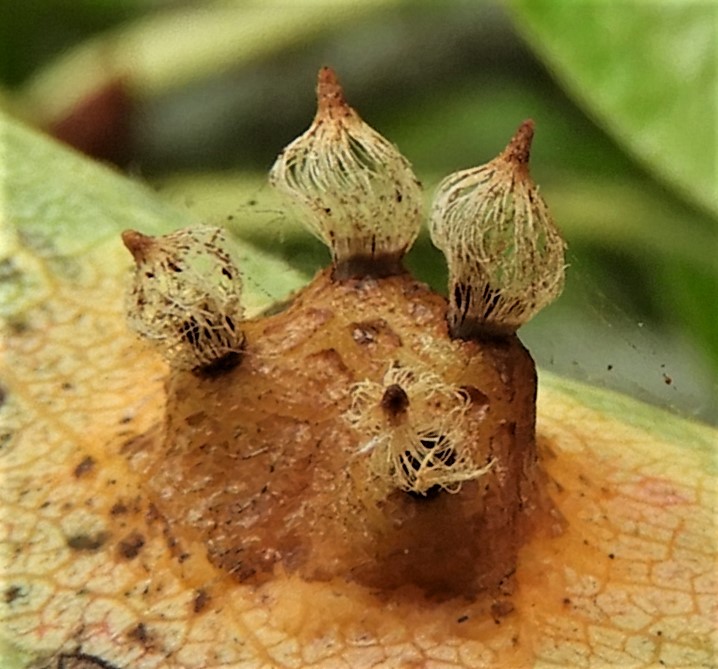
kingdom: Fungi
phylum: Basidiomycota
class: Pucciniomycetes
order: Pucciniales
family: Gymnosporangiaceae
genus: Gymnosporangium
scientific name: Gymnosporangium sabinae
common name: pæregitter-bævrerust
